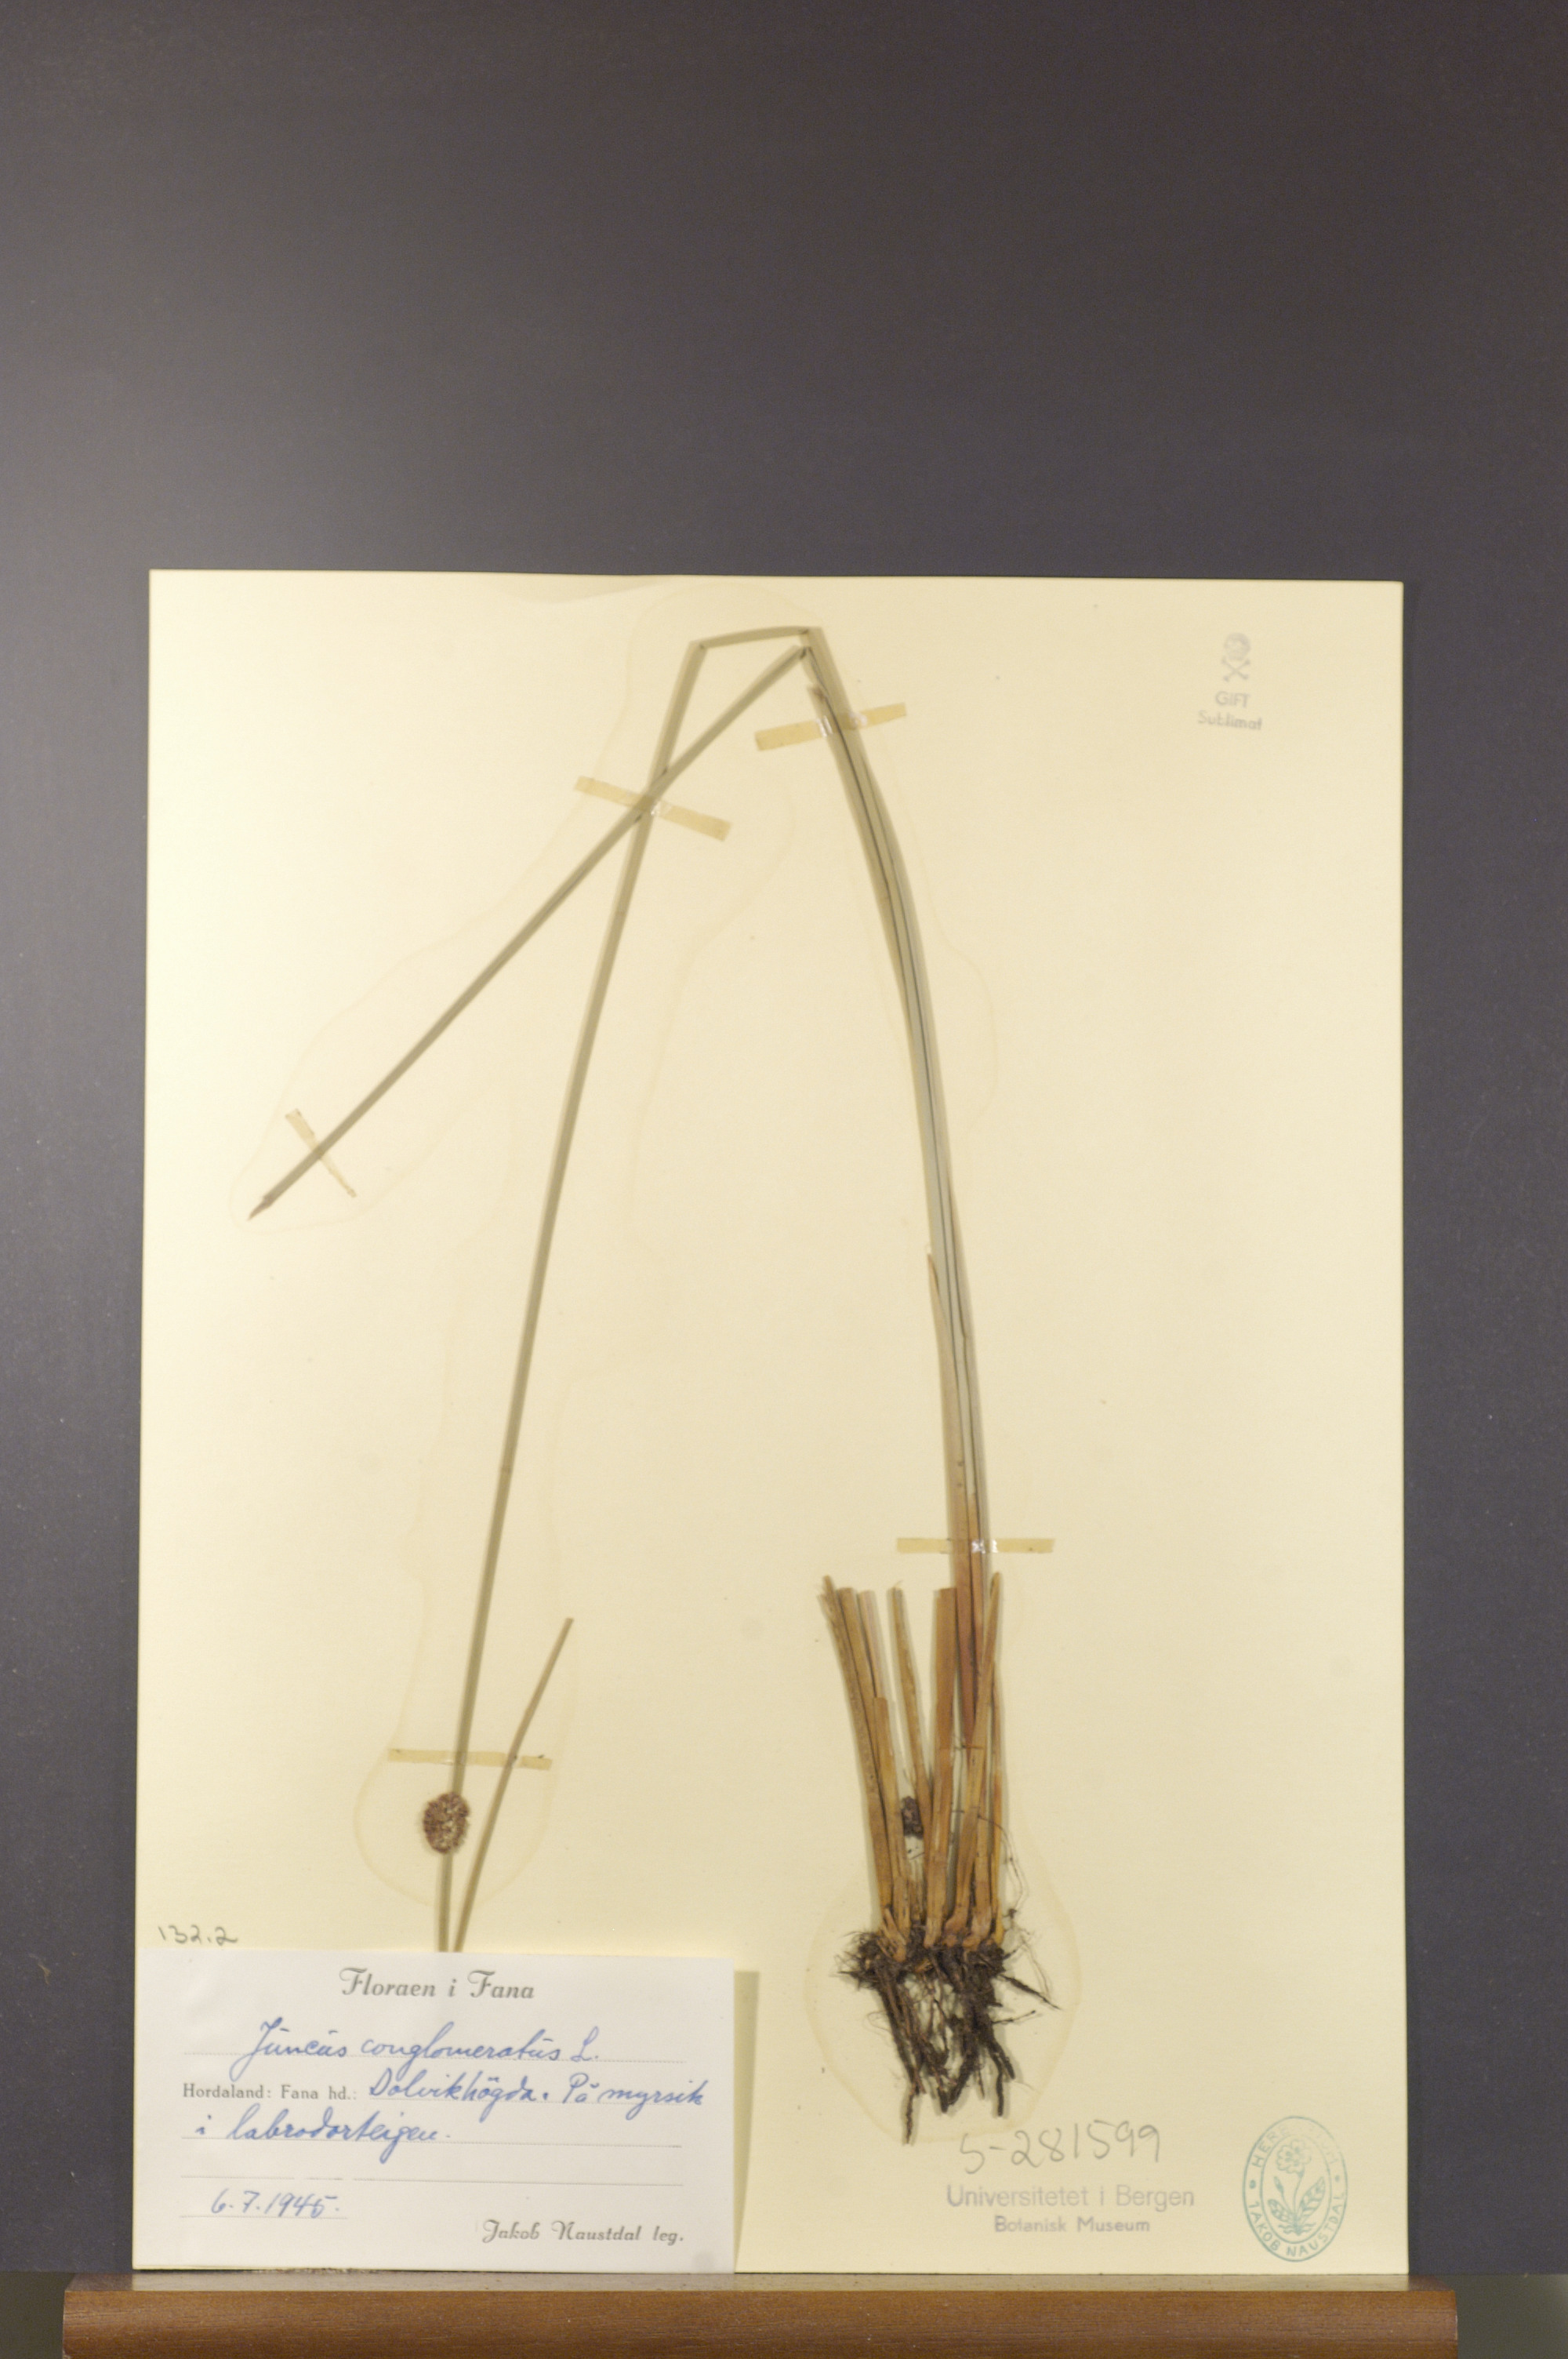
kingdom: Plantae
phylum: Tracheophyta
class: Liliopsida
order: Poales
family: Juncaceae
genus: Juncus
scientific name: Juncus conglomeratus
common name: Compact rush
